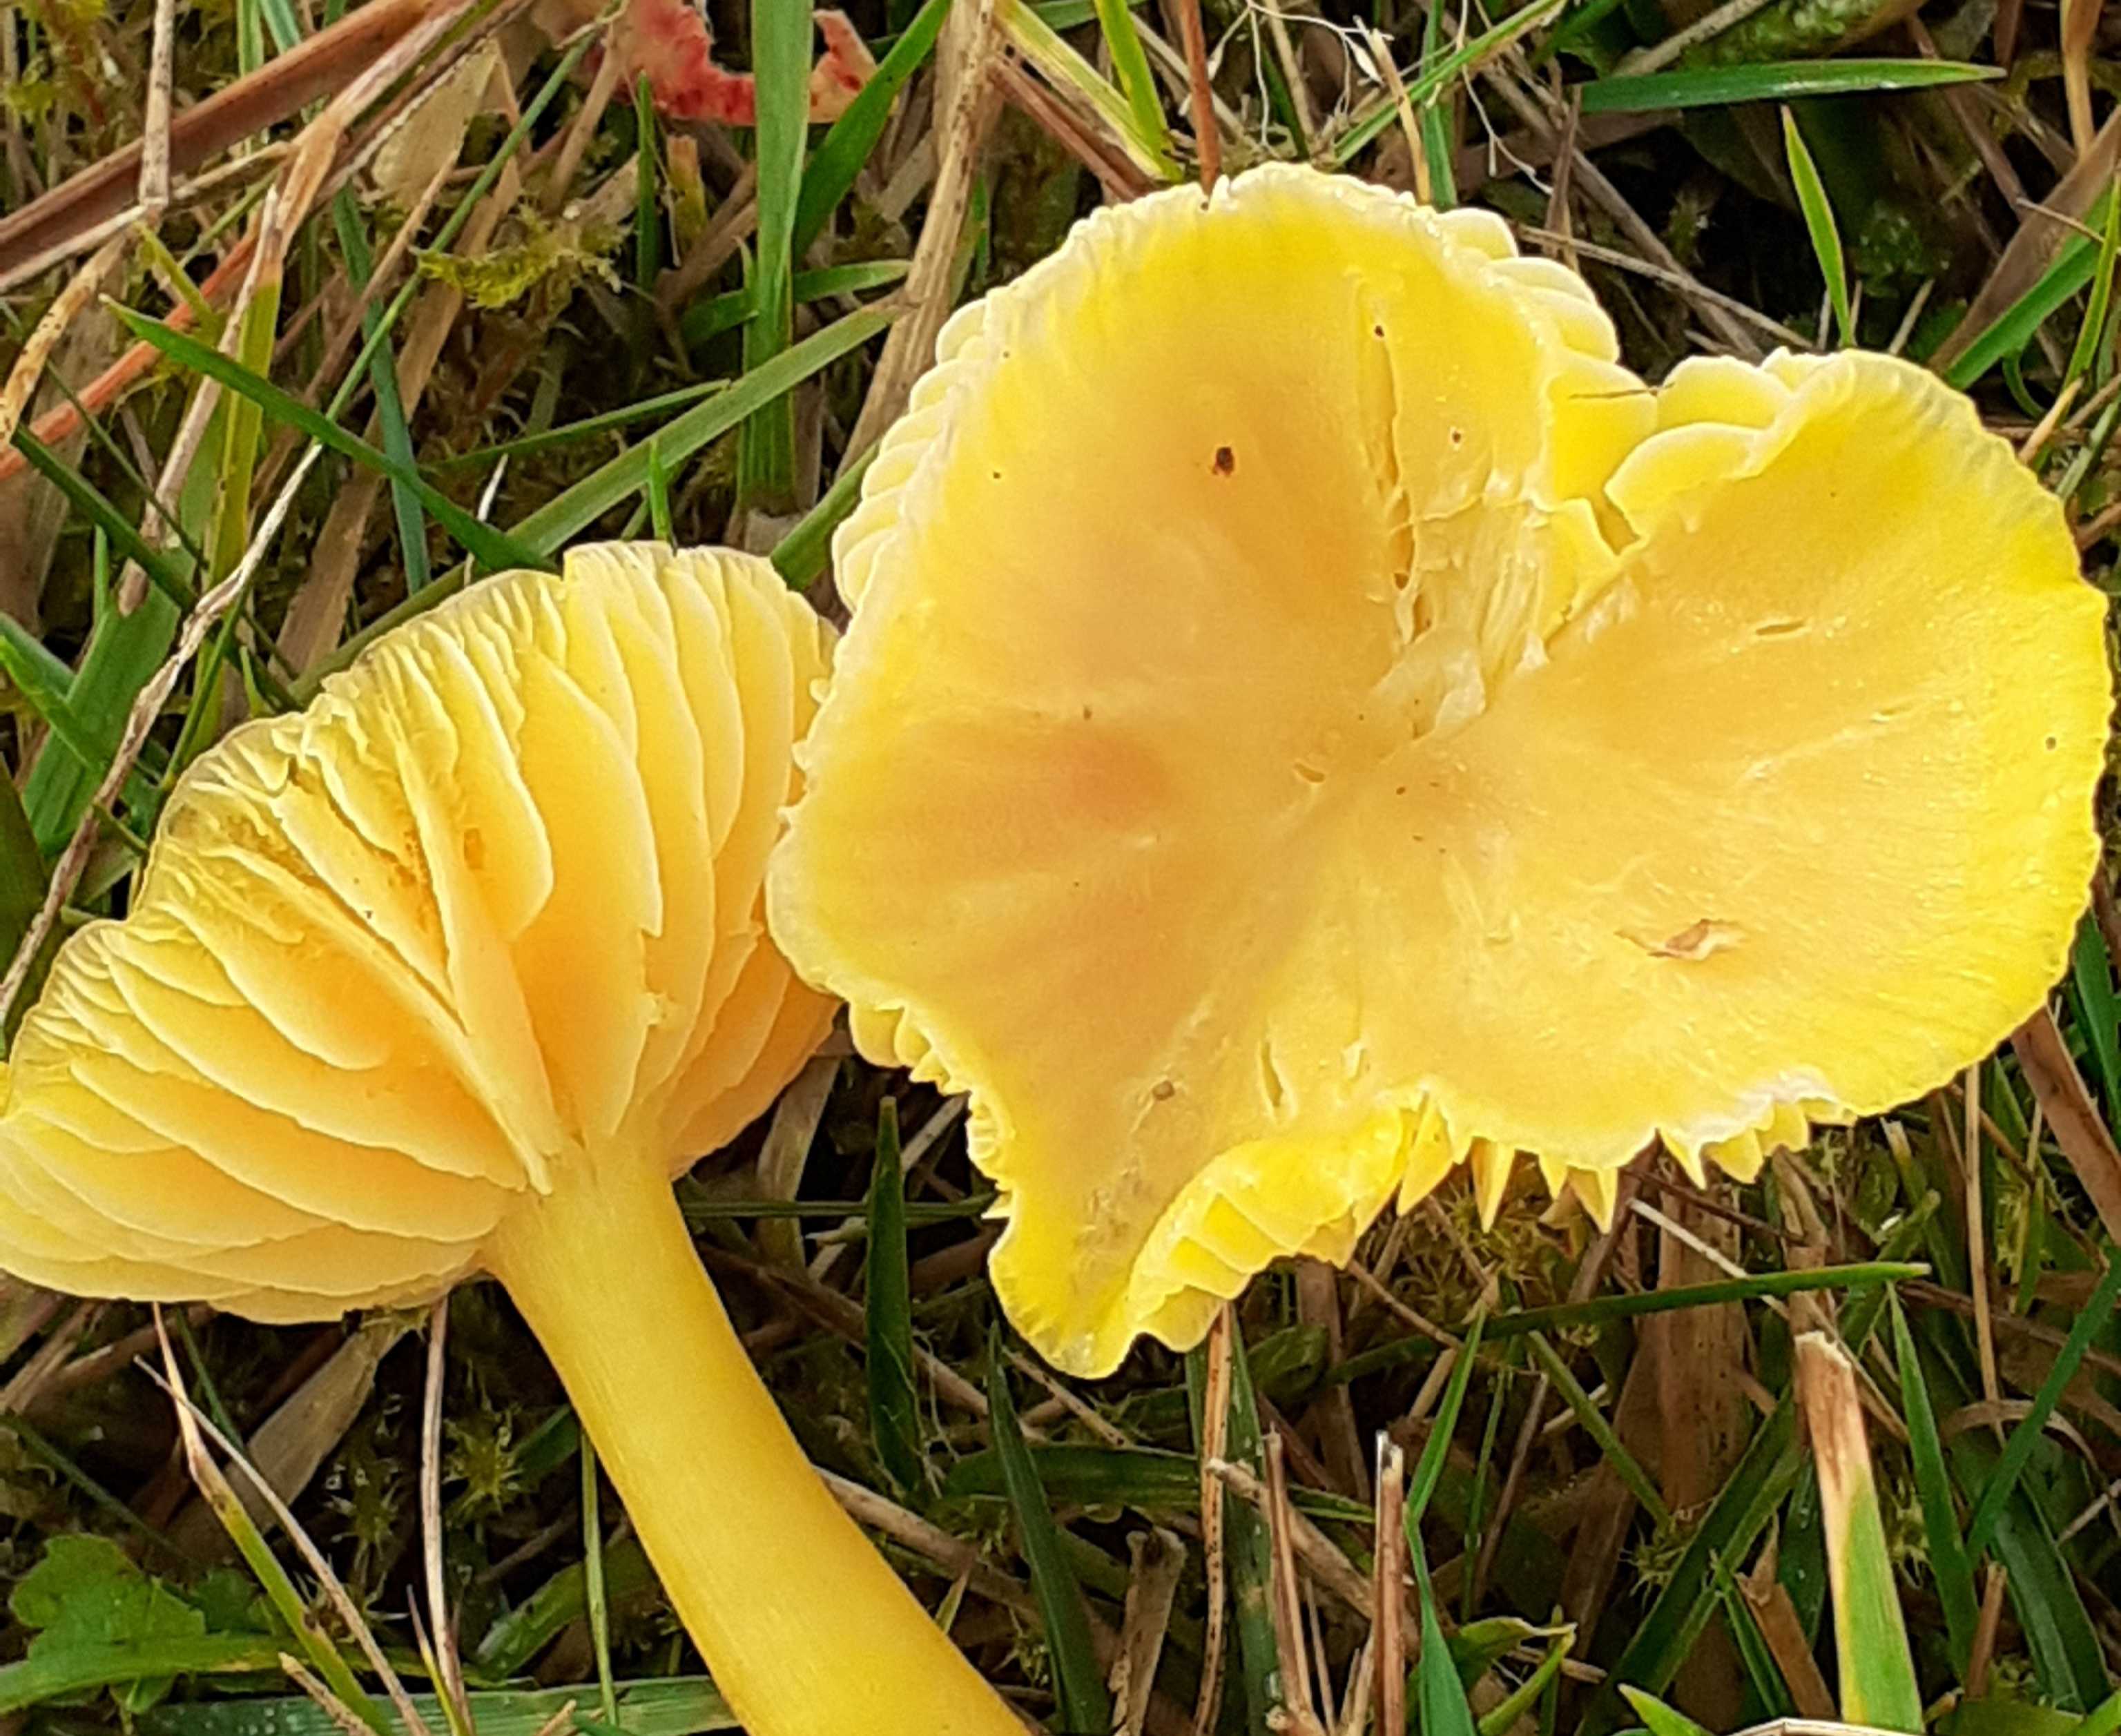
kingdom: Fungi
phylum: Basidiomycota
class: Agaricomycetes
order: Agaricales
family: Hygrophoraceae
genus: Hygrocybe
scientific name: Hygrocybe chlorophana
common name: gul vokshat
